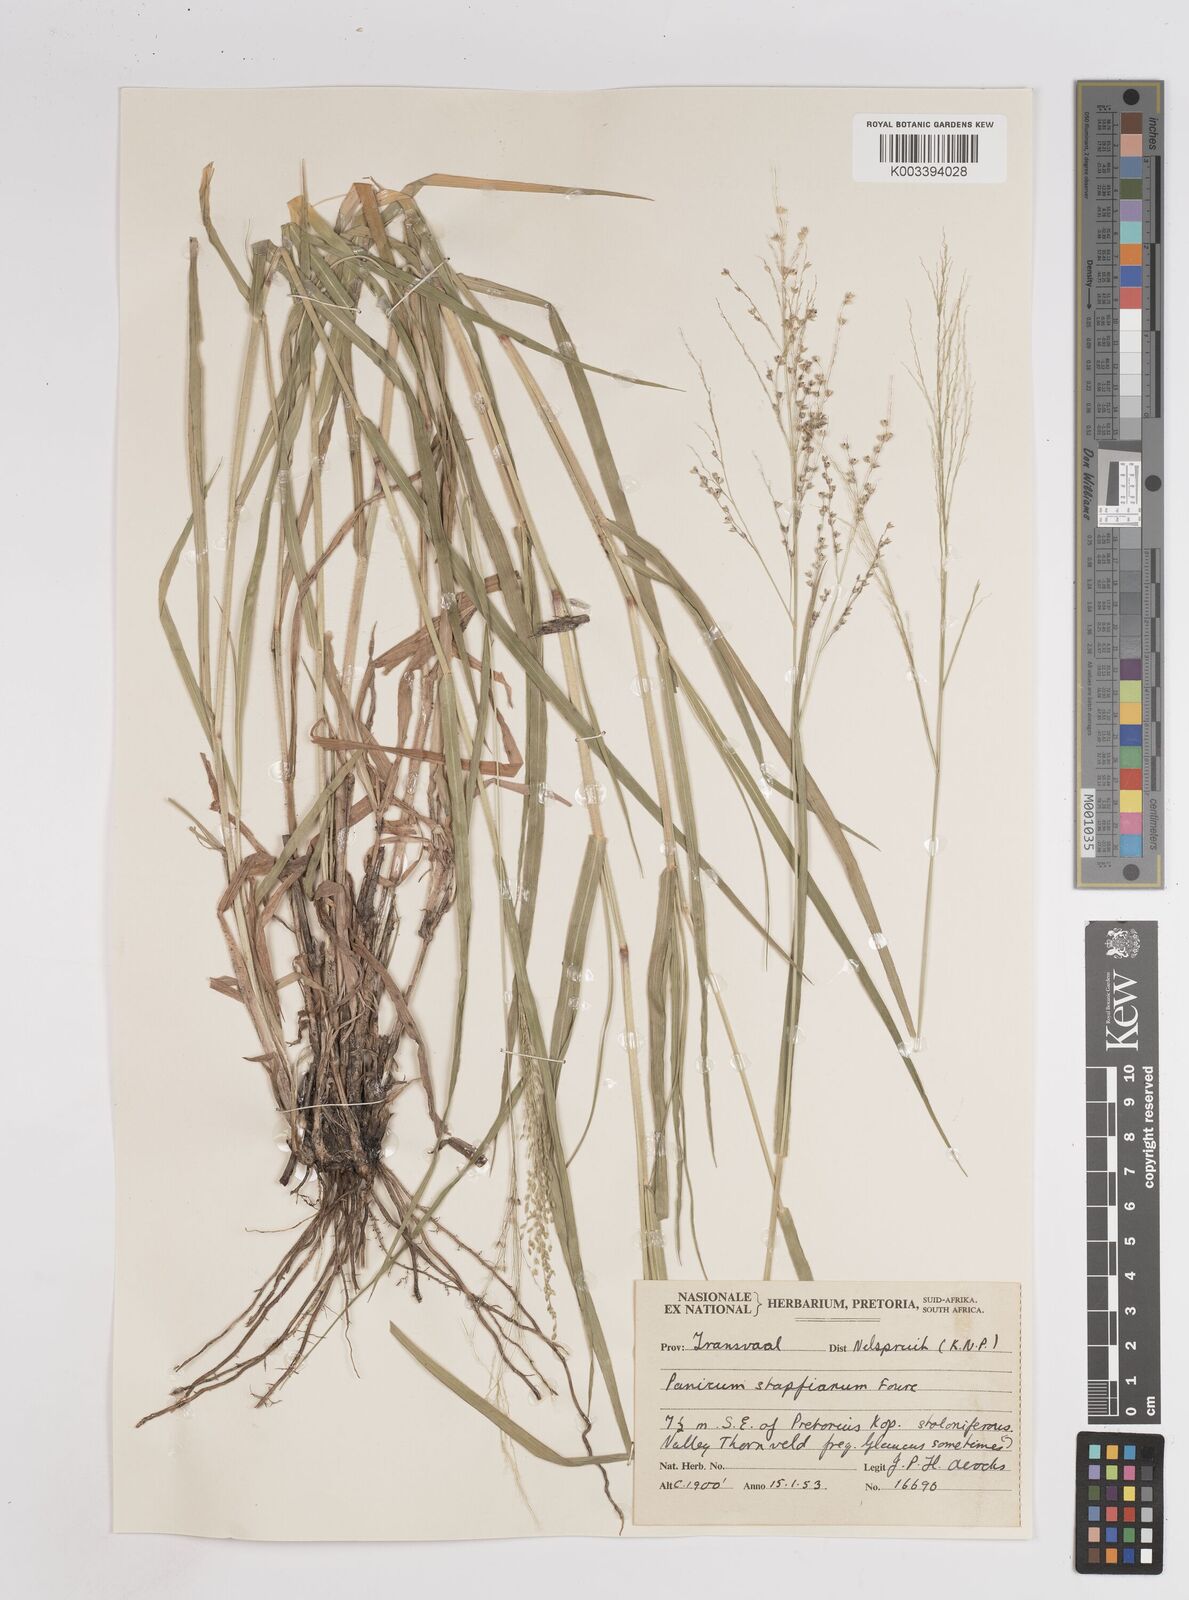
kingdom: Plantae
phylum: Tracheophyta
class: Liliopsida
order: Poales
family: Poaceae
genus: Panicum
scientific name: Panicum
